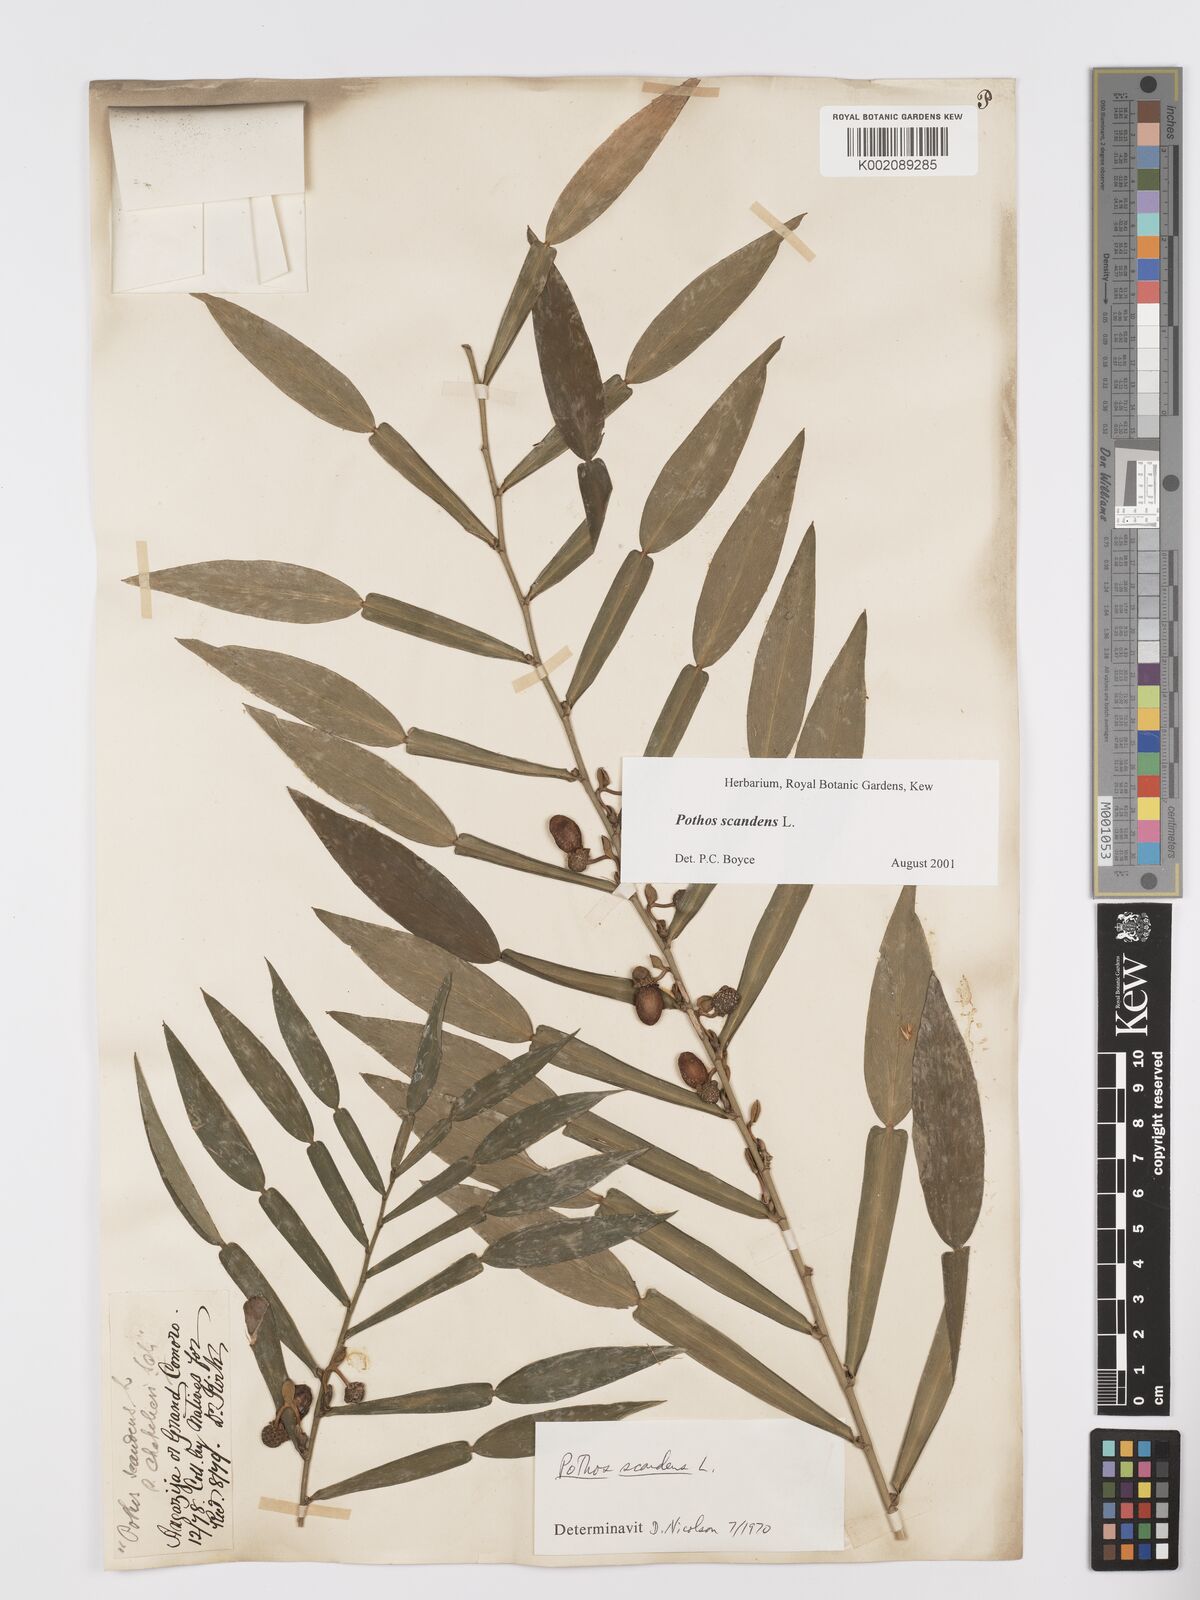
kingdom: Plantae
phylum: Tracheophyta
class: Liliopsida
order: Alismatales
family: Araceae
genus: Pothos
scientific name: Pothos scandens
